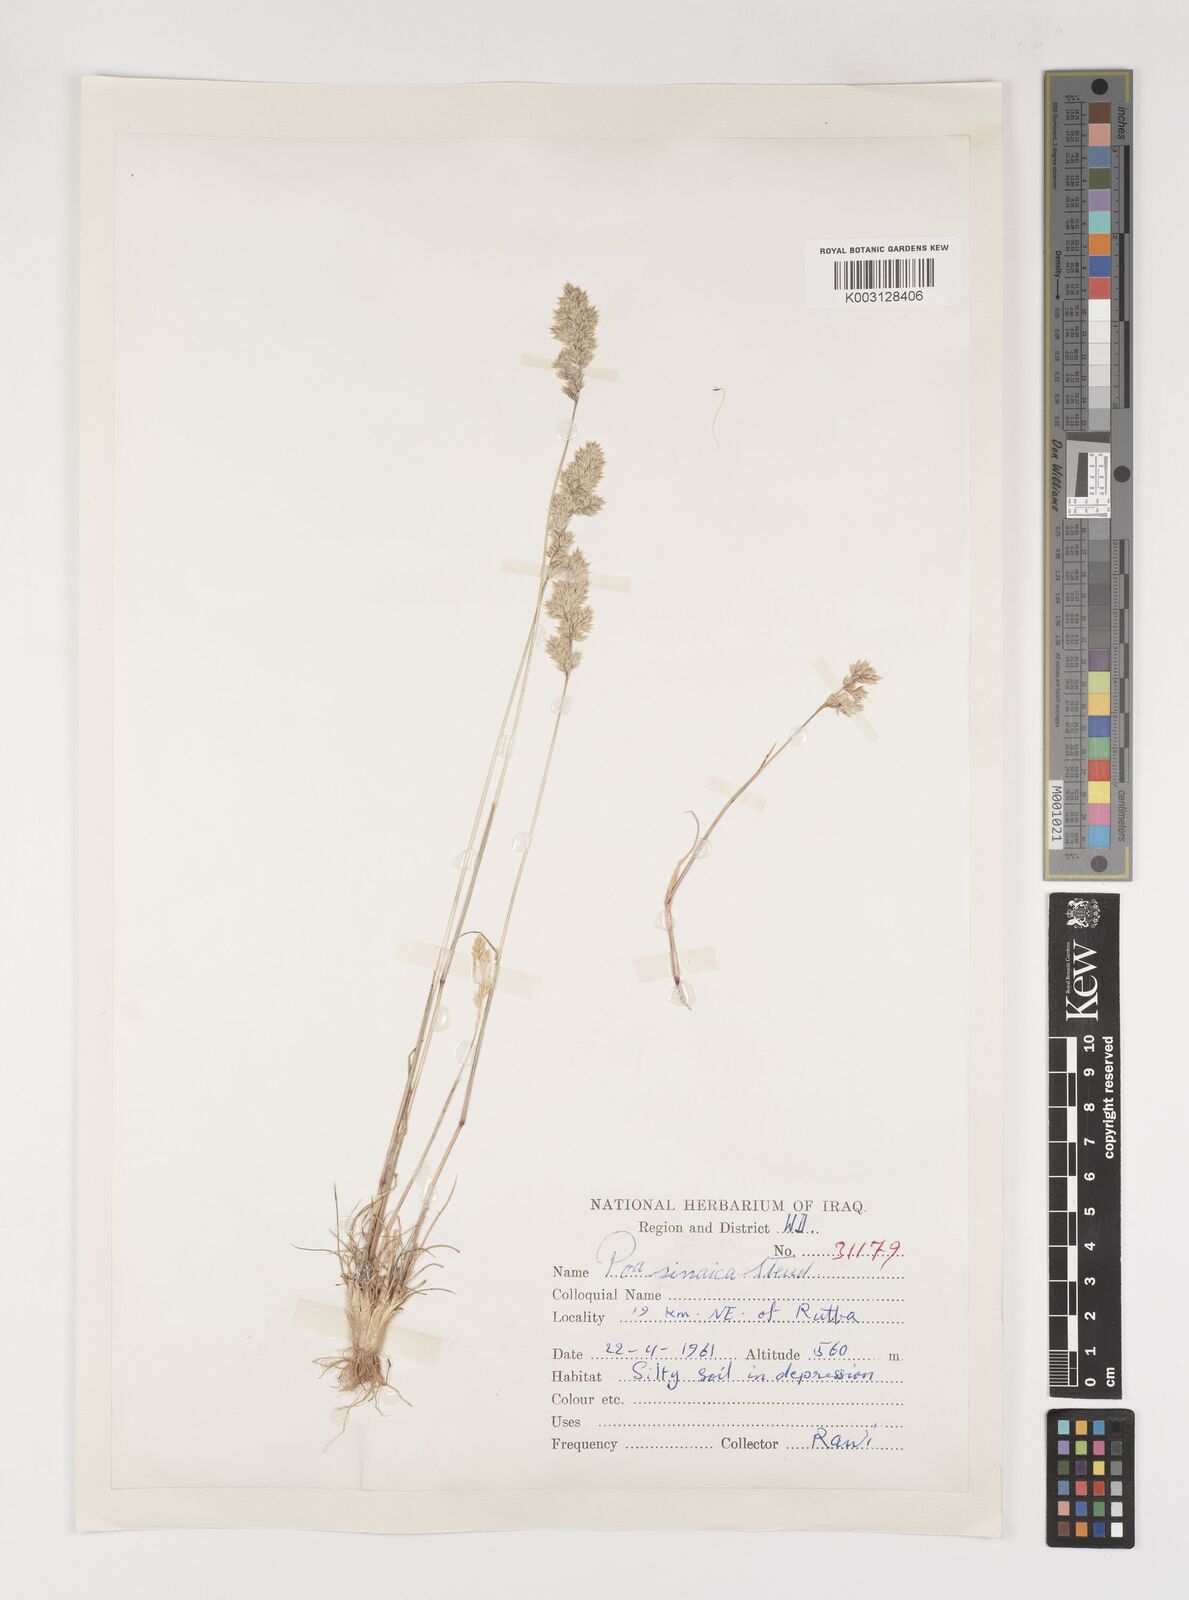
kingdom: Plantae
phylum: Tracheophyta
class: Liliopsida
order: Poales
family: Poaceae
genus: Poa
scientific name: Poa sinaica
